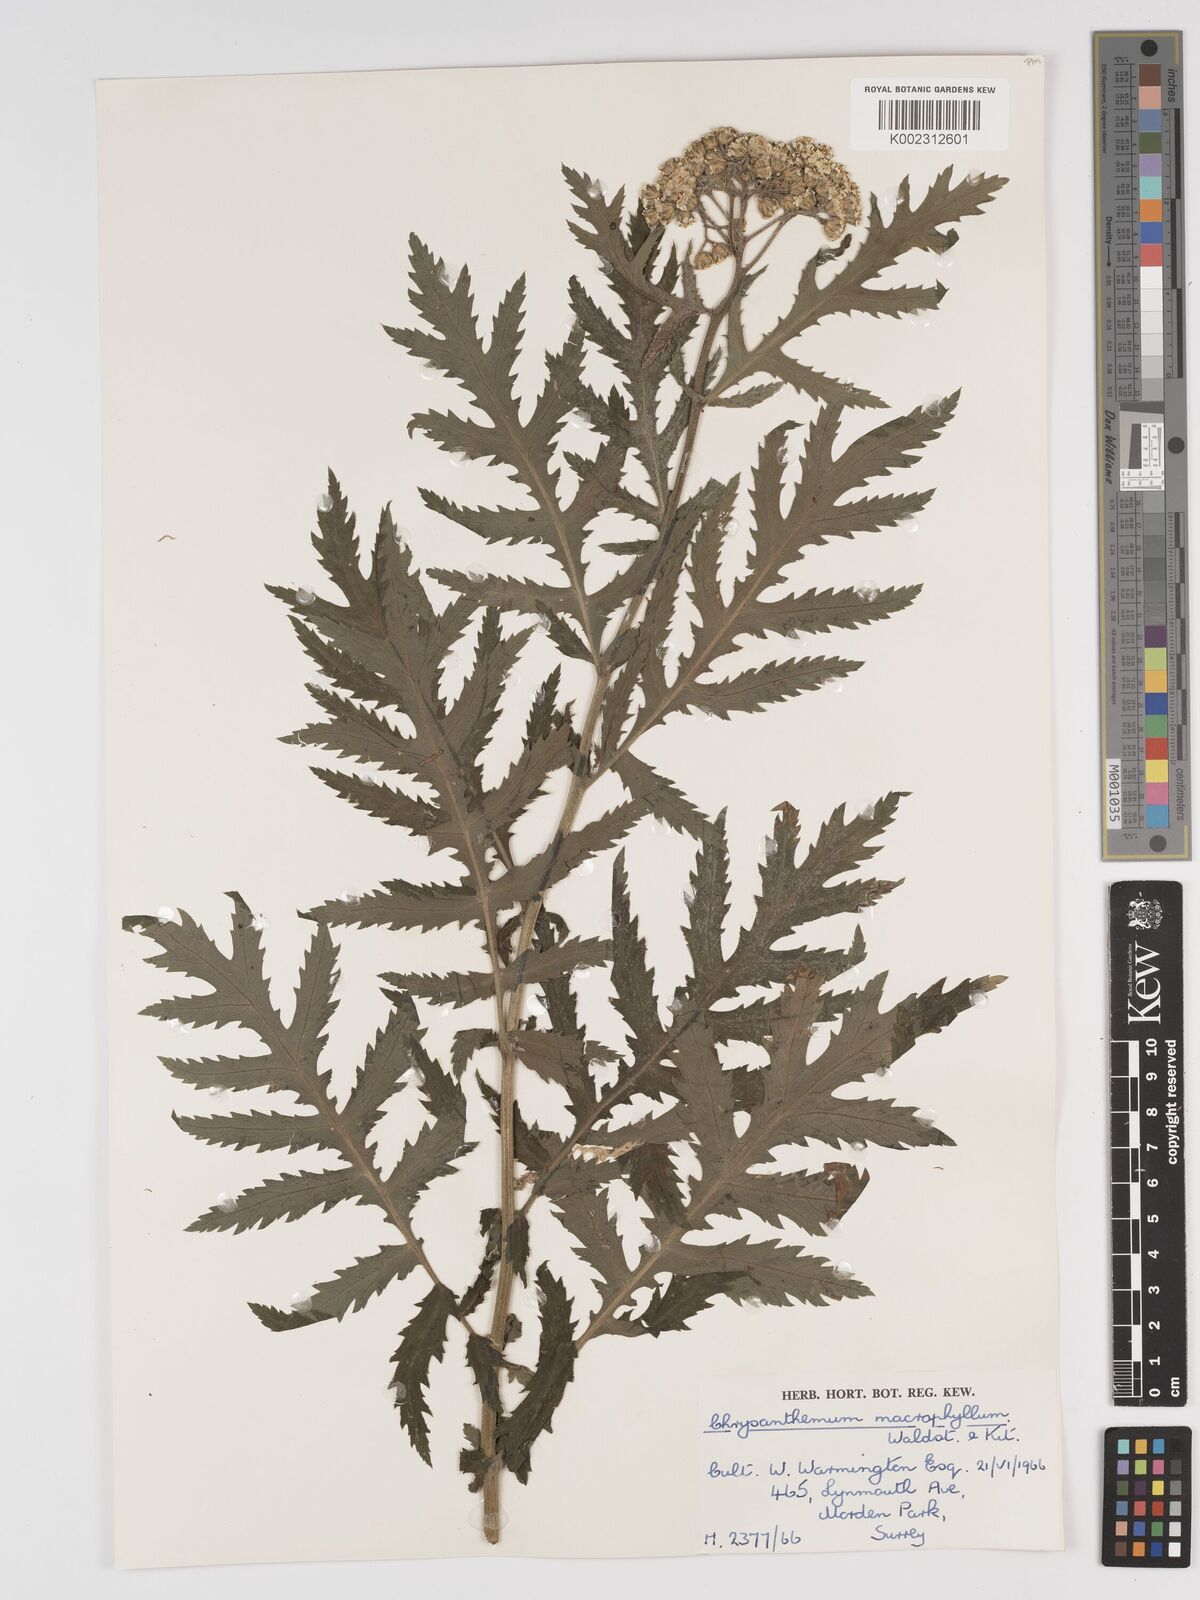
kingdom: Plantae
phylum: Tracheophyta
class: Magnoliopsida
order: Asterales
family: Asteraceae
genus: Tanacetum
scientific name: Tanacetum macrophyllum
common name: Rayed tansy
